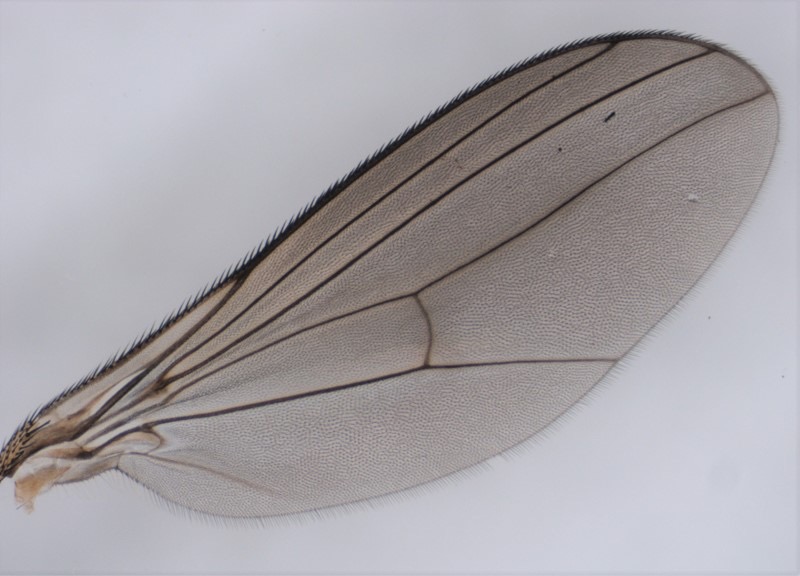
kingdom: Animalia
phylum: Arthropoda
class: Insecta
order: Diptera
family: Dolichopodidae
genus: Rhaphium
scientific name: Rhaphium auctum
